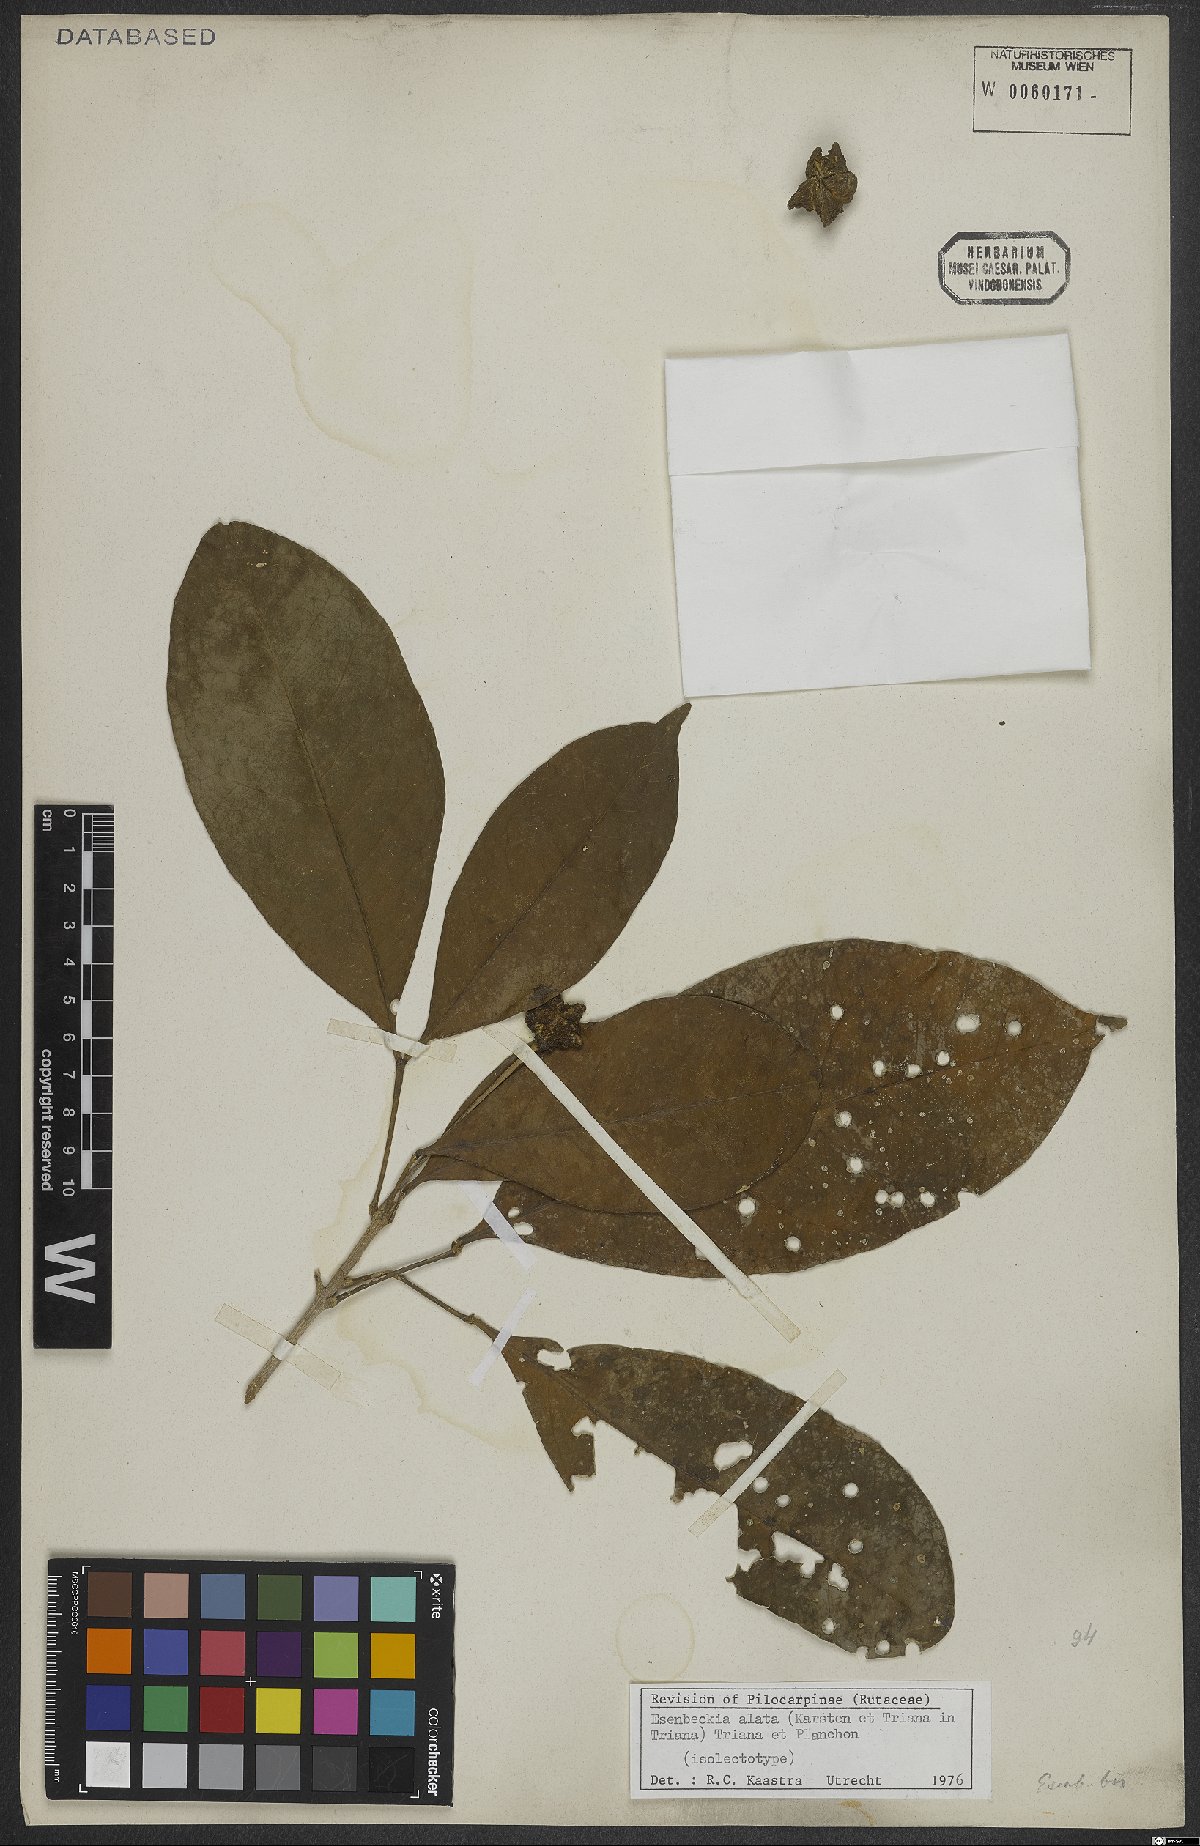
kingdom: Plantae
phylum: Tracheophyta
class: Magnoliopsida
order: Sapindales
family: Rutaceae
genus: Esenbeckia
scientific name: Esenbeckia alata
